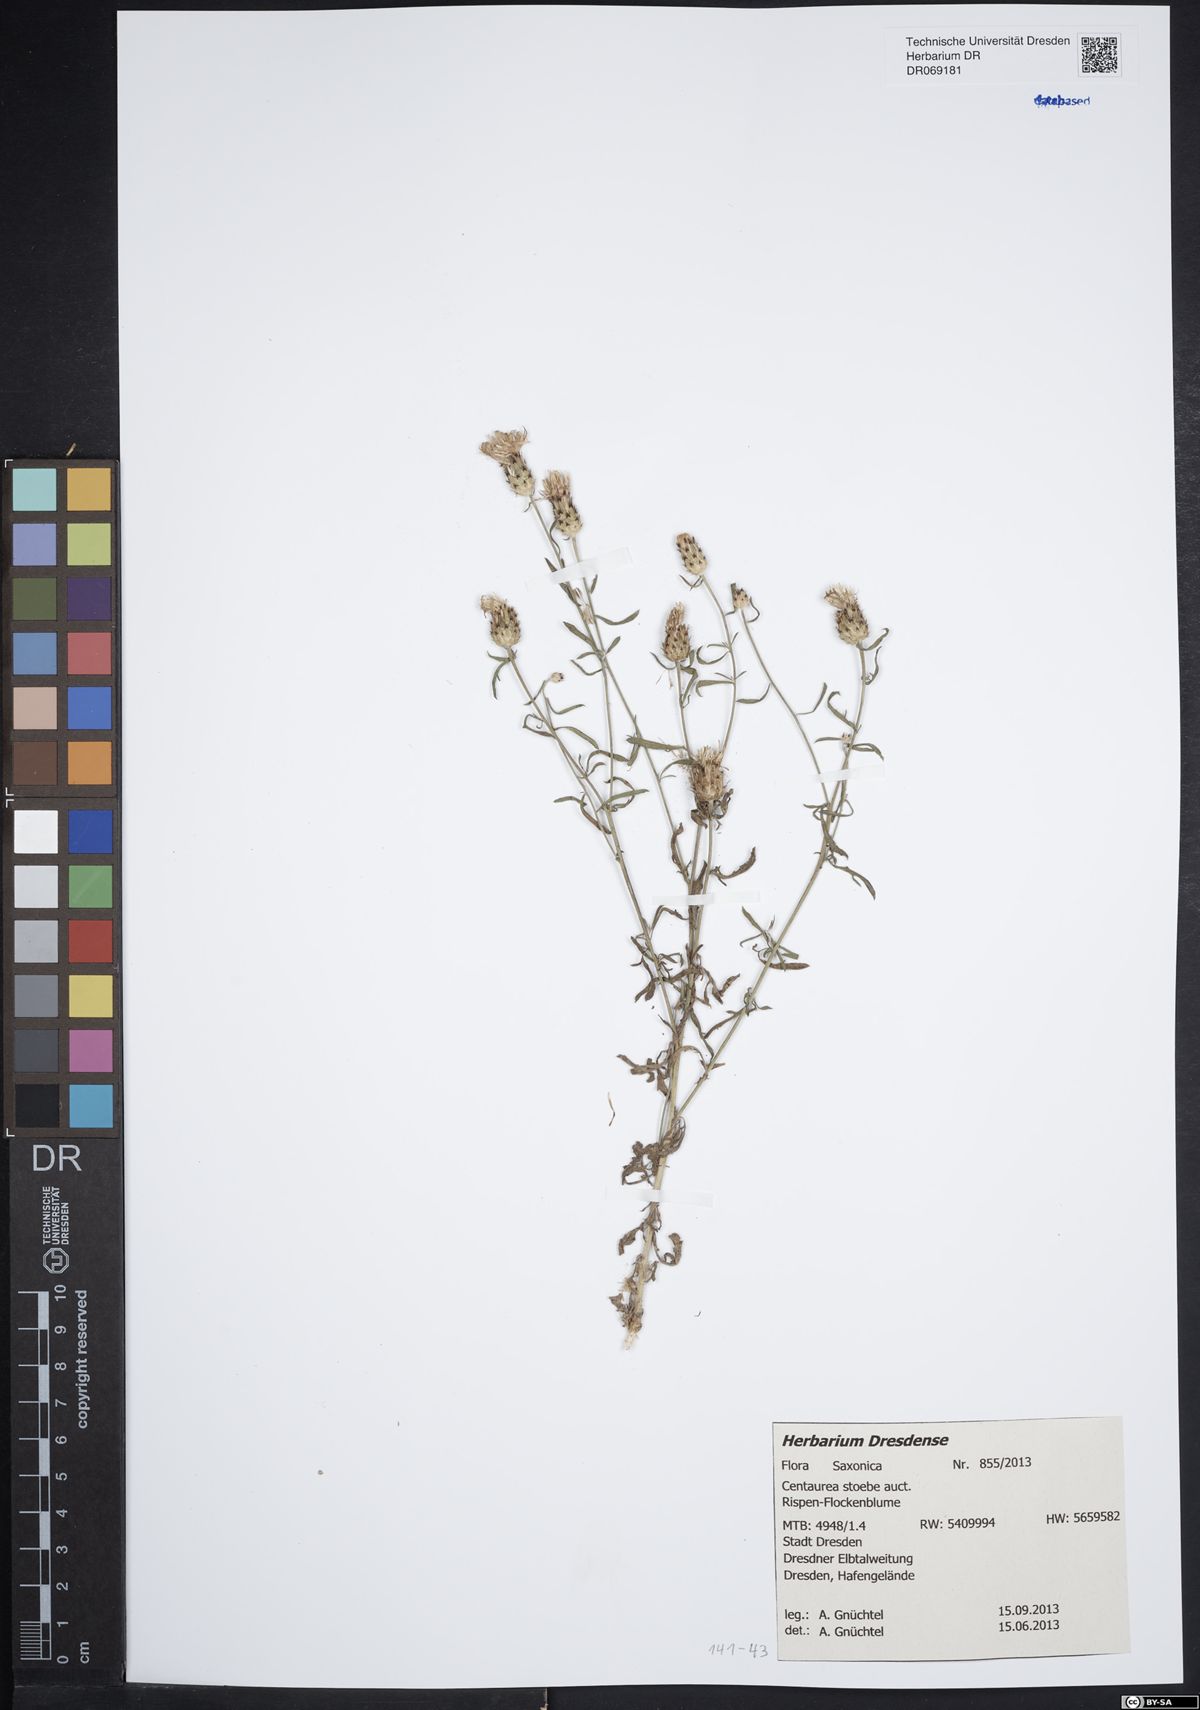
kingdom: Plantae
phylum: Tracheophyta
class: Magnoliopsida
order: Asterales
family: Asteraceae
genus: Centaurea
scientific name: Centaurea stoebe
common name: Spotted knapweed
